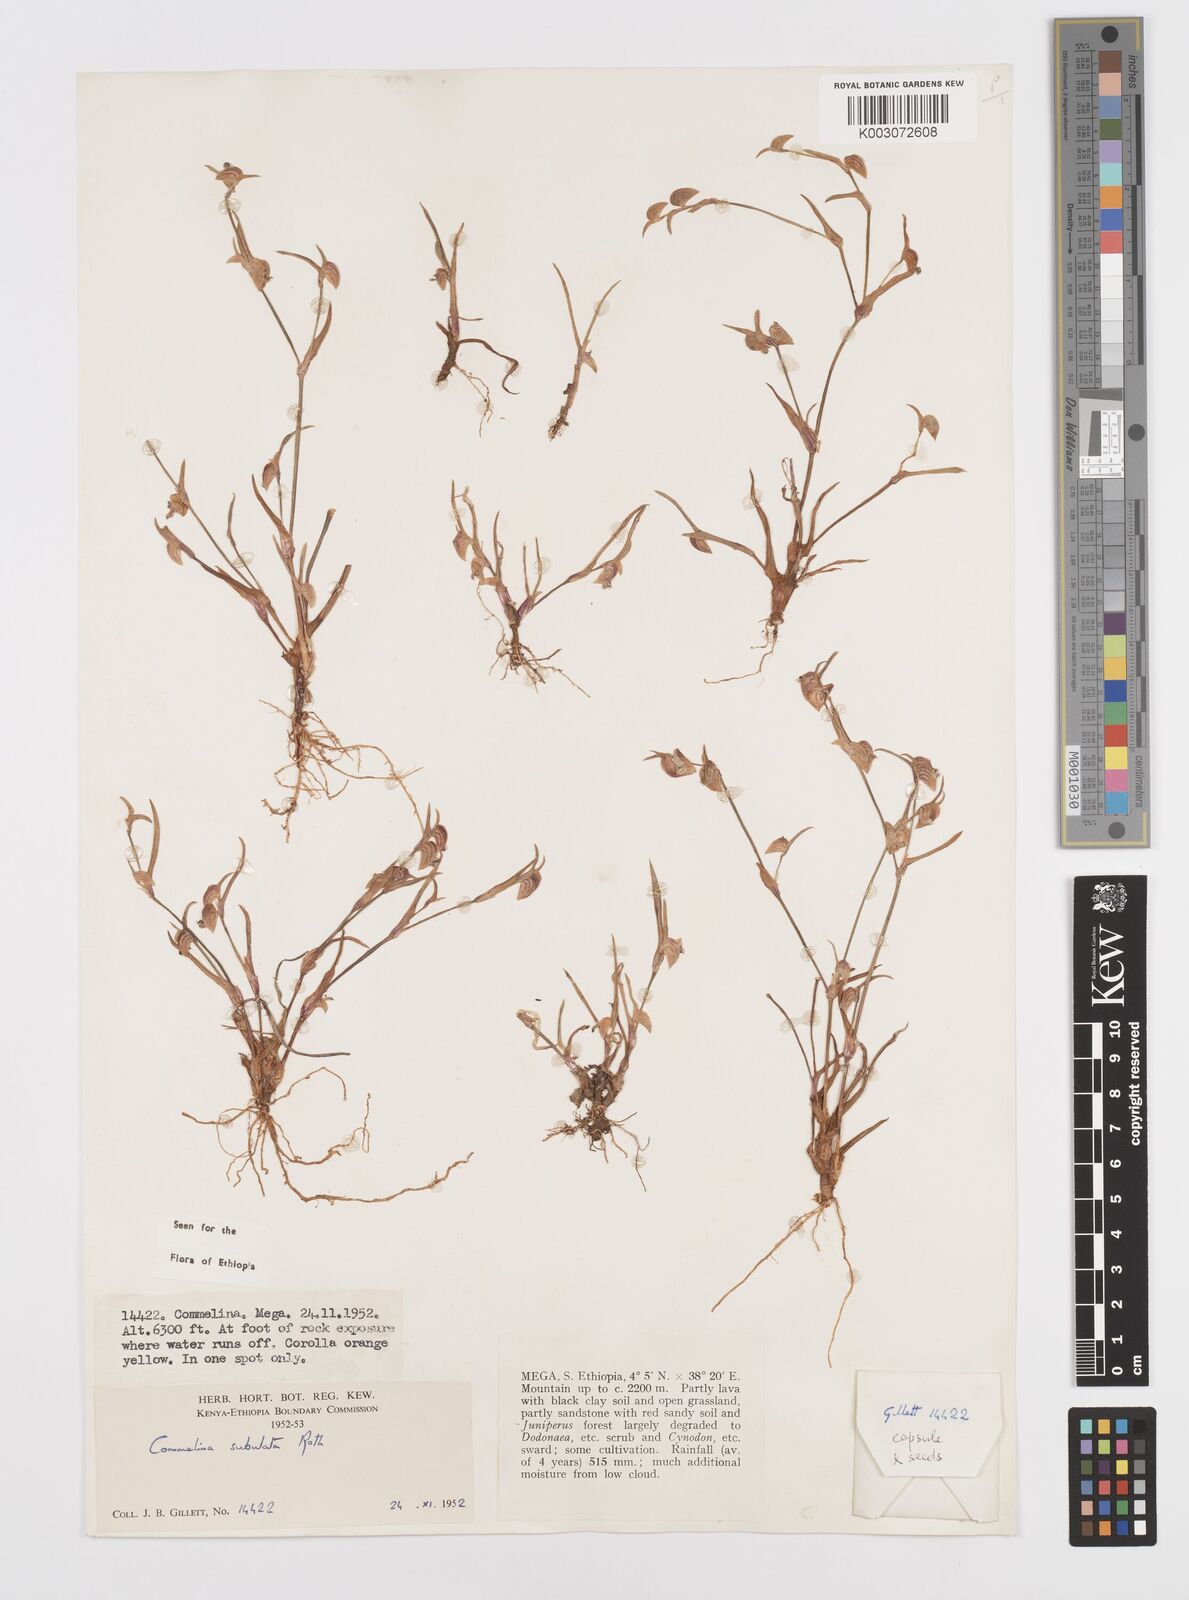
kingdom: Plantae
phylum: Tracheophyta
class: Liliopsida
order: Commelinales
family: Commelinaceae
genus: Commelina
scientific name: Commelina subulata
